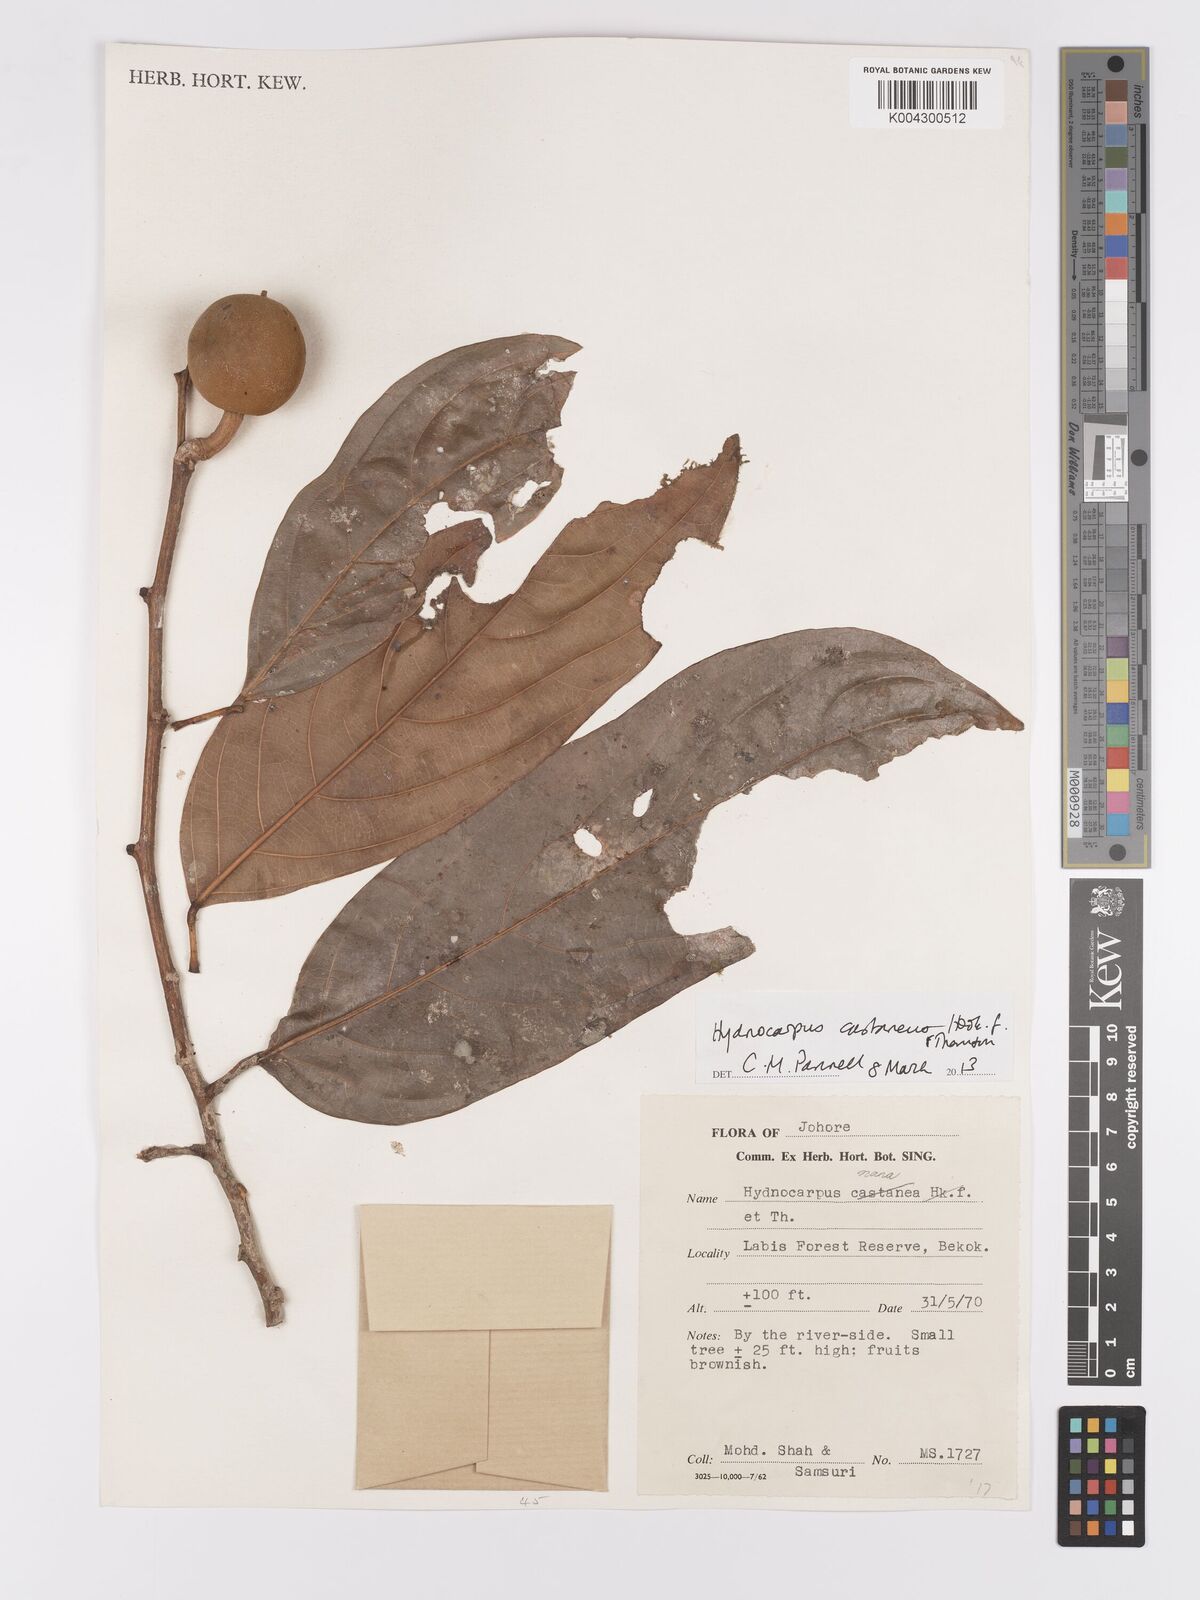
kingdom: Plantae
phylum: Tracheophyta
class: Magnoliopsida
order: Malpighiales
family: Achariaceae
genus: Hydnocarpus
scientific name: Hydnocarpus castaneus
